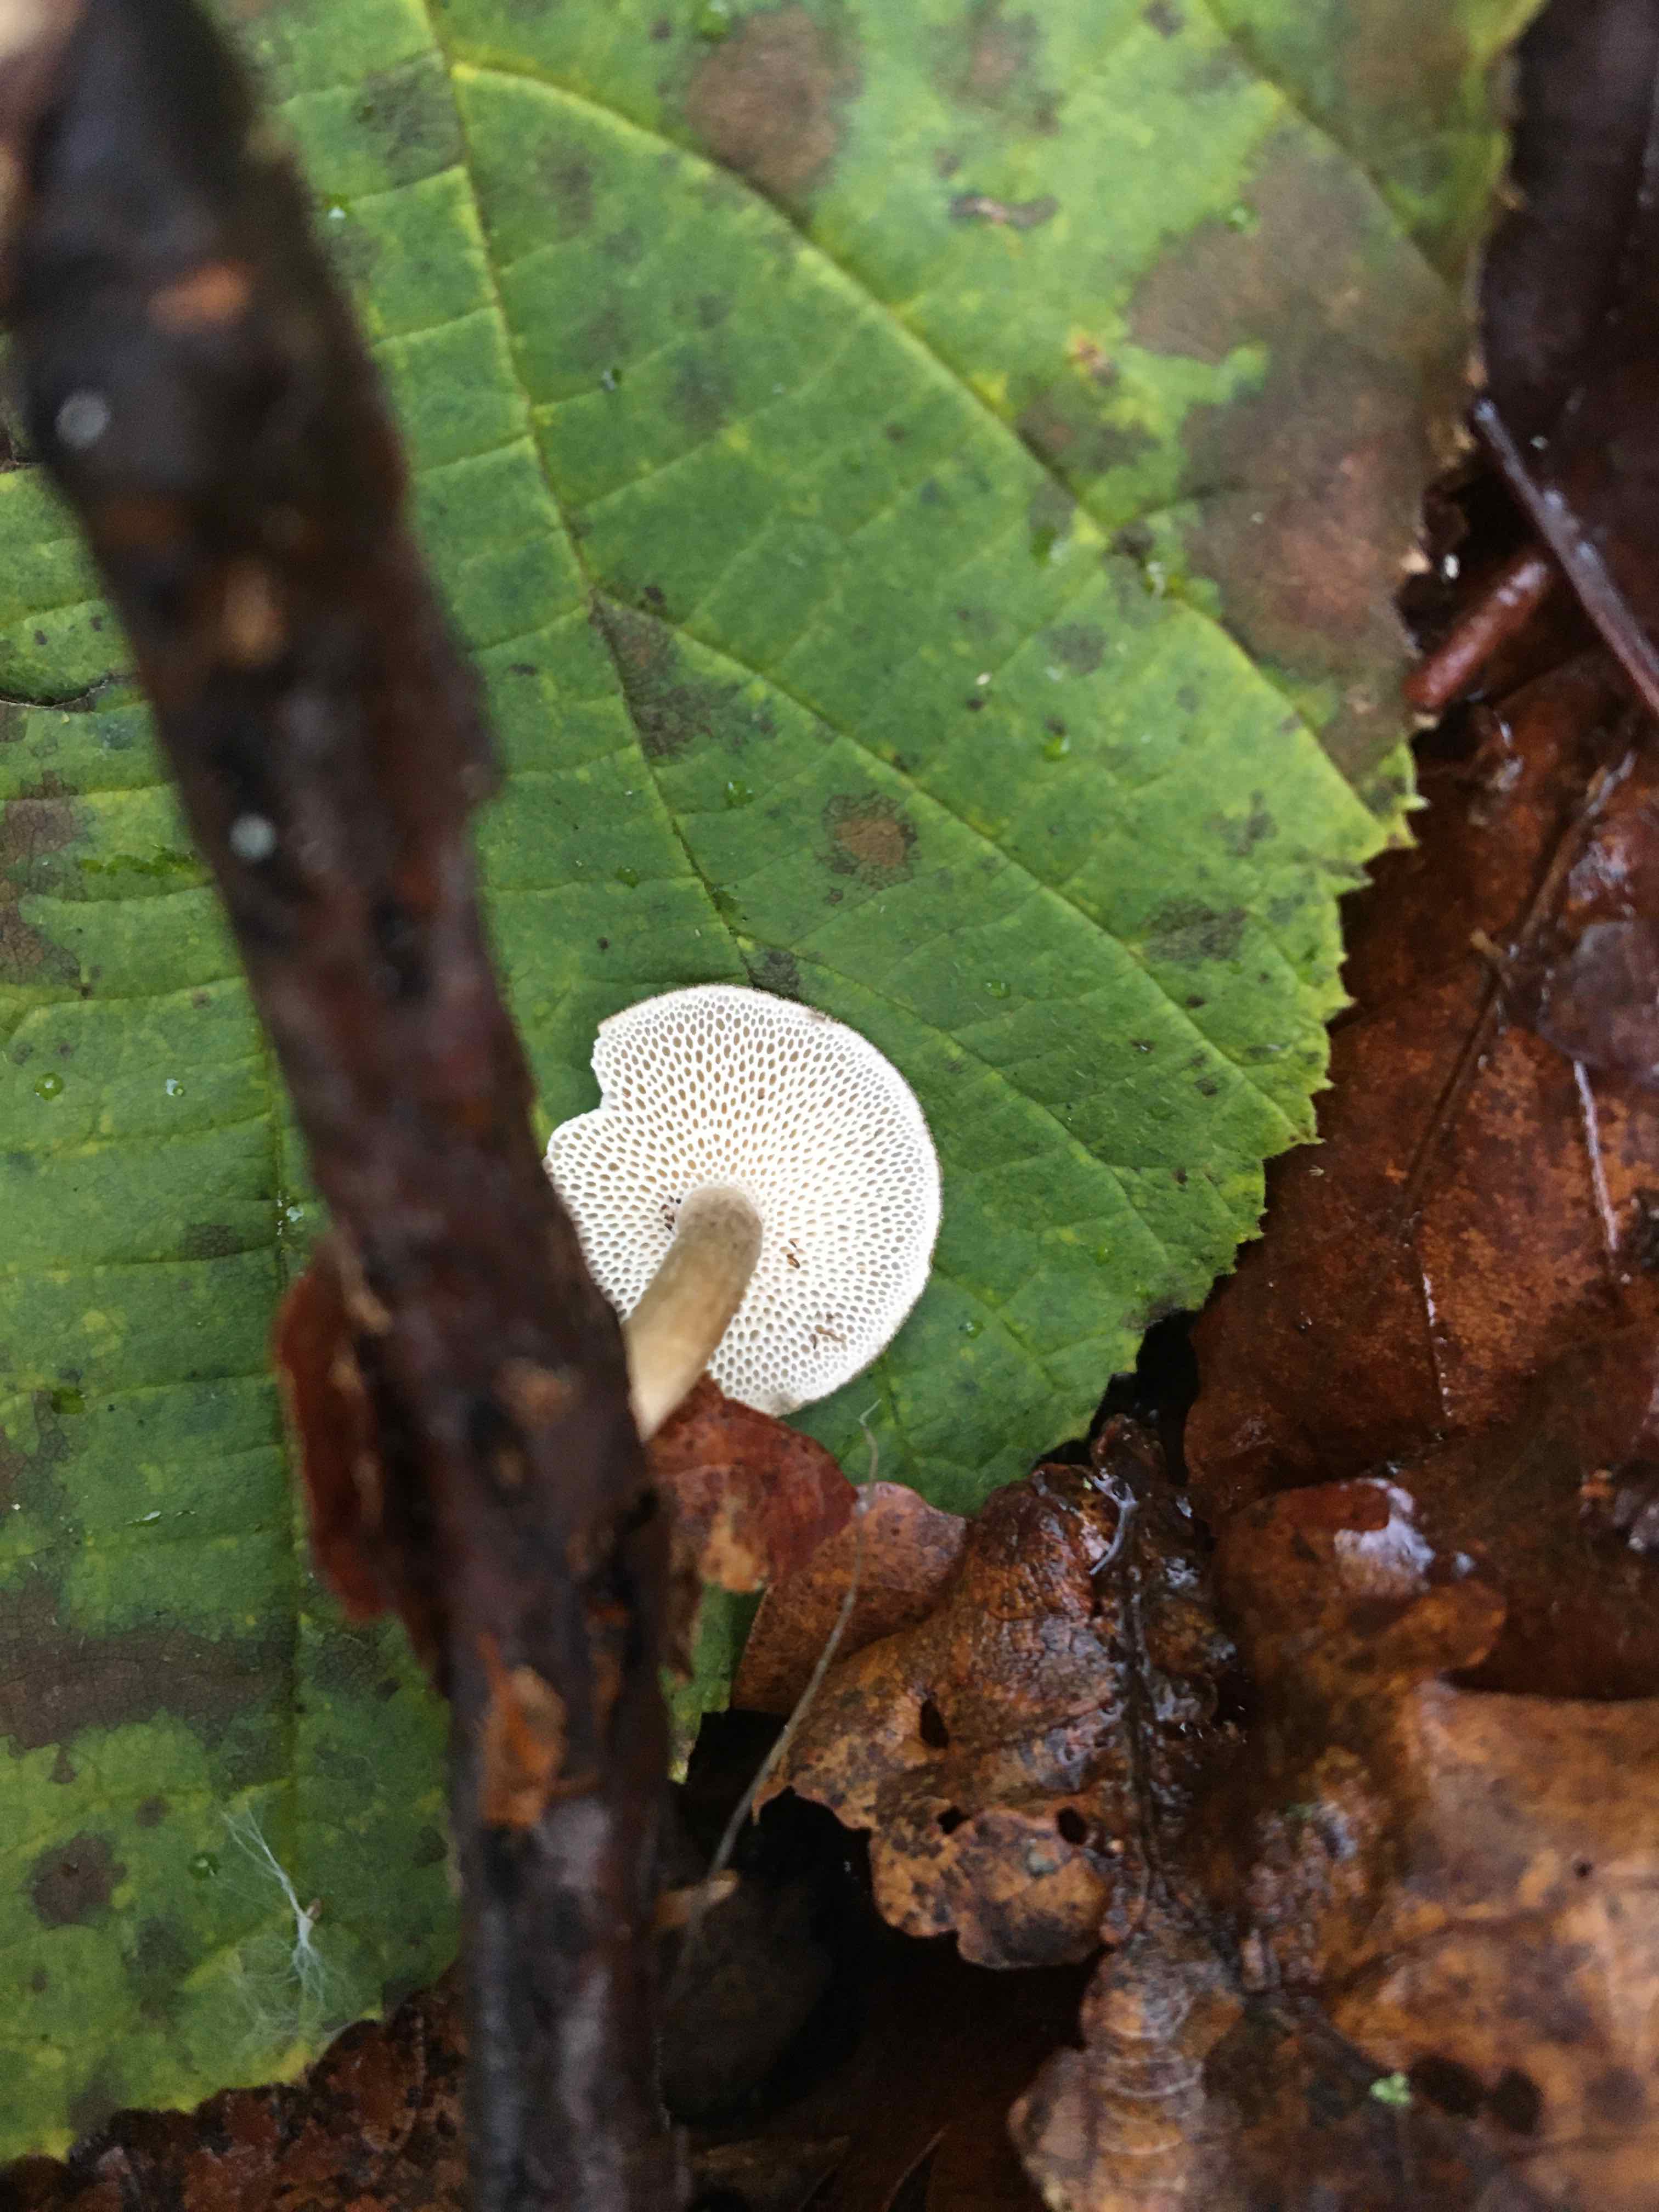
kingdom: Fungi
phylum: Basidiomycota
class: Agaricomycetes
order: Polyporales
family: Polyporaceae
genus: Lentinus
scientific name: Lentinus brumalis
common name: vinter-stilkporesvamp
